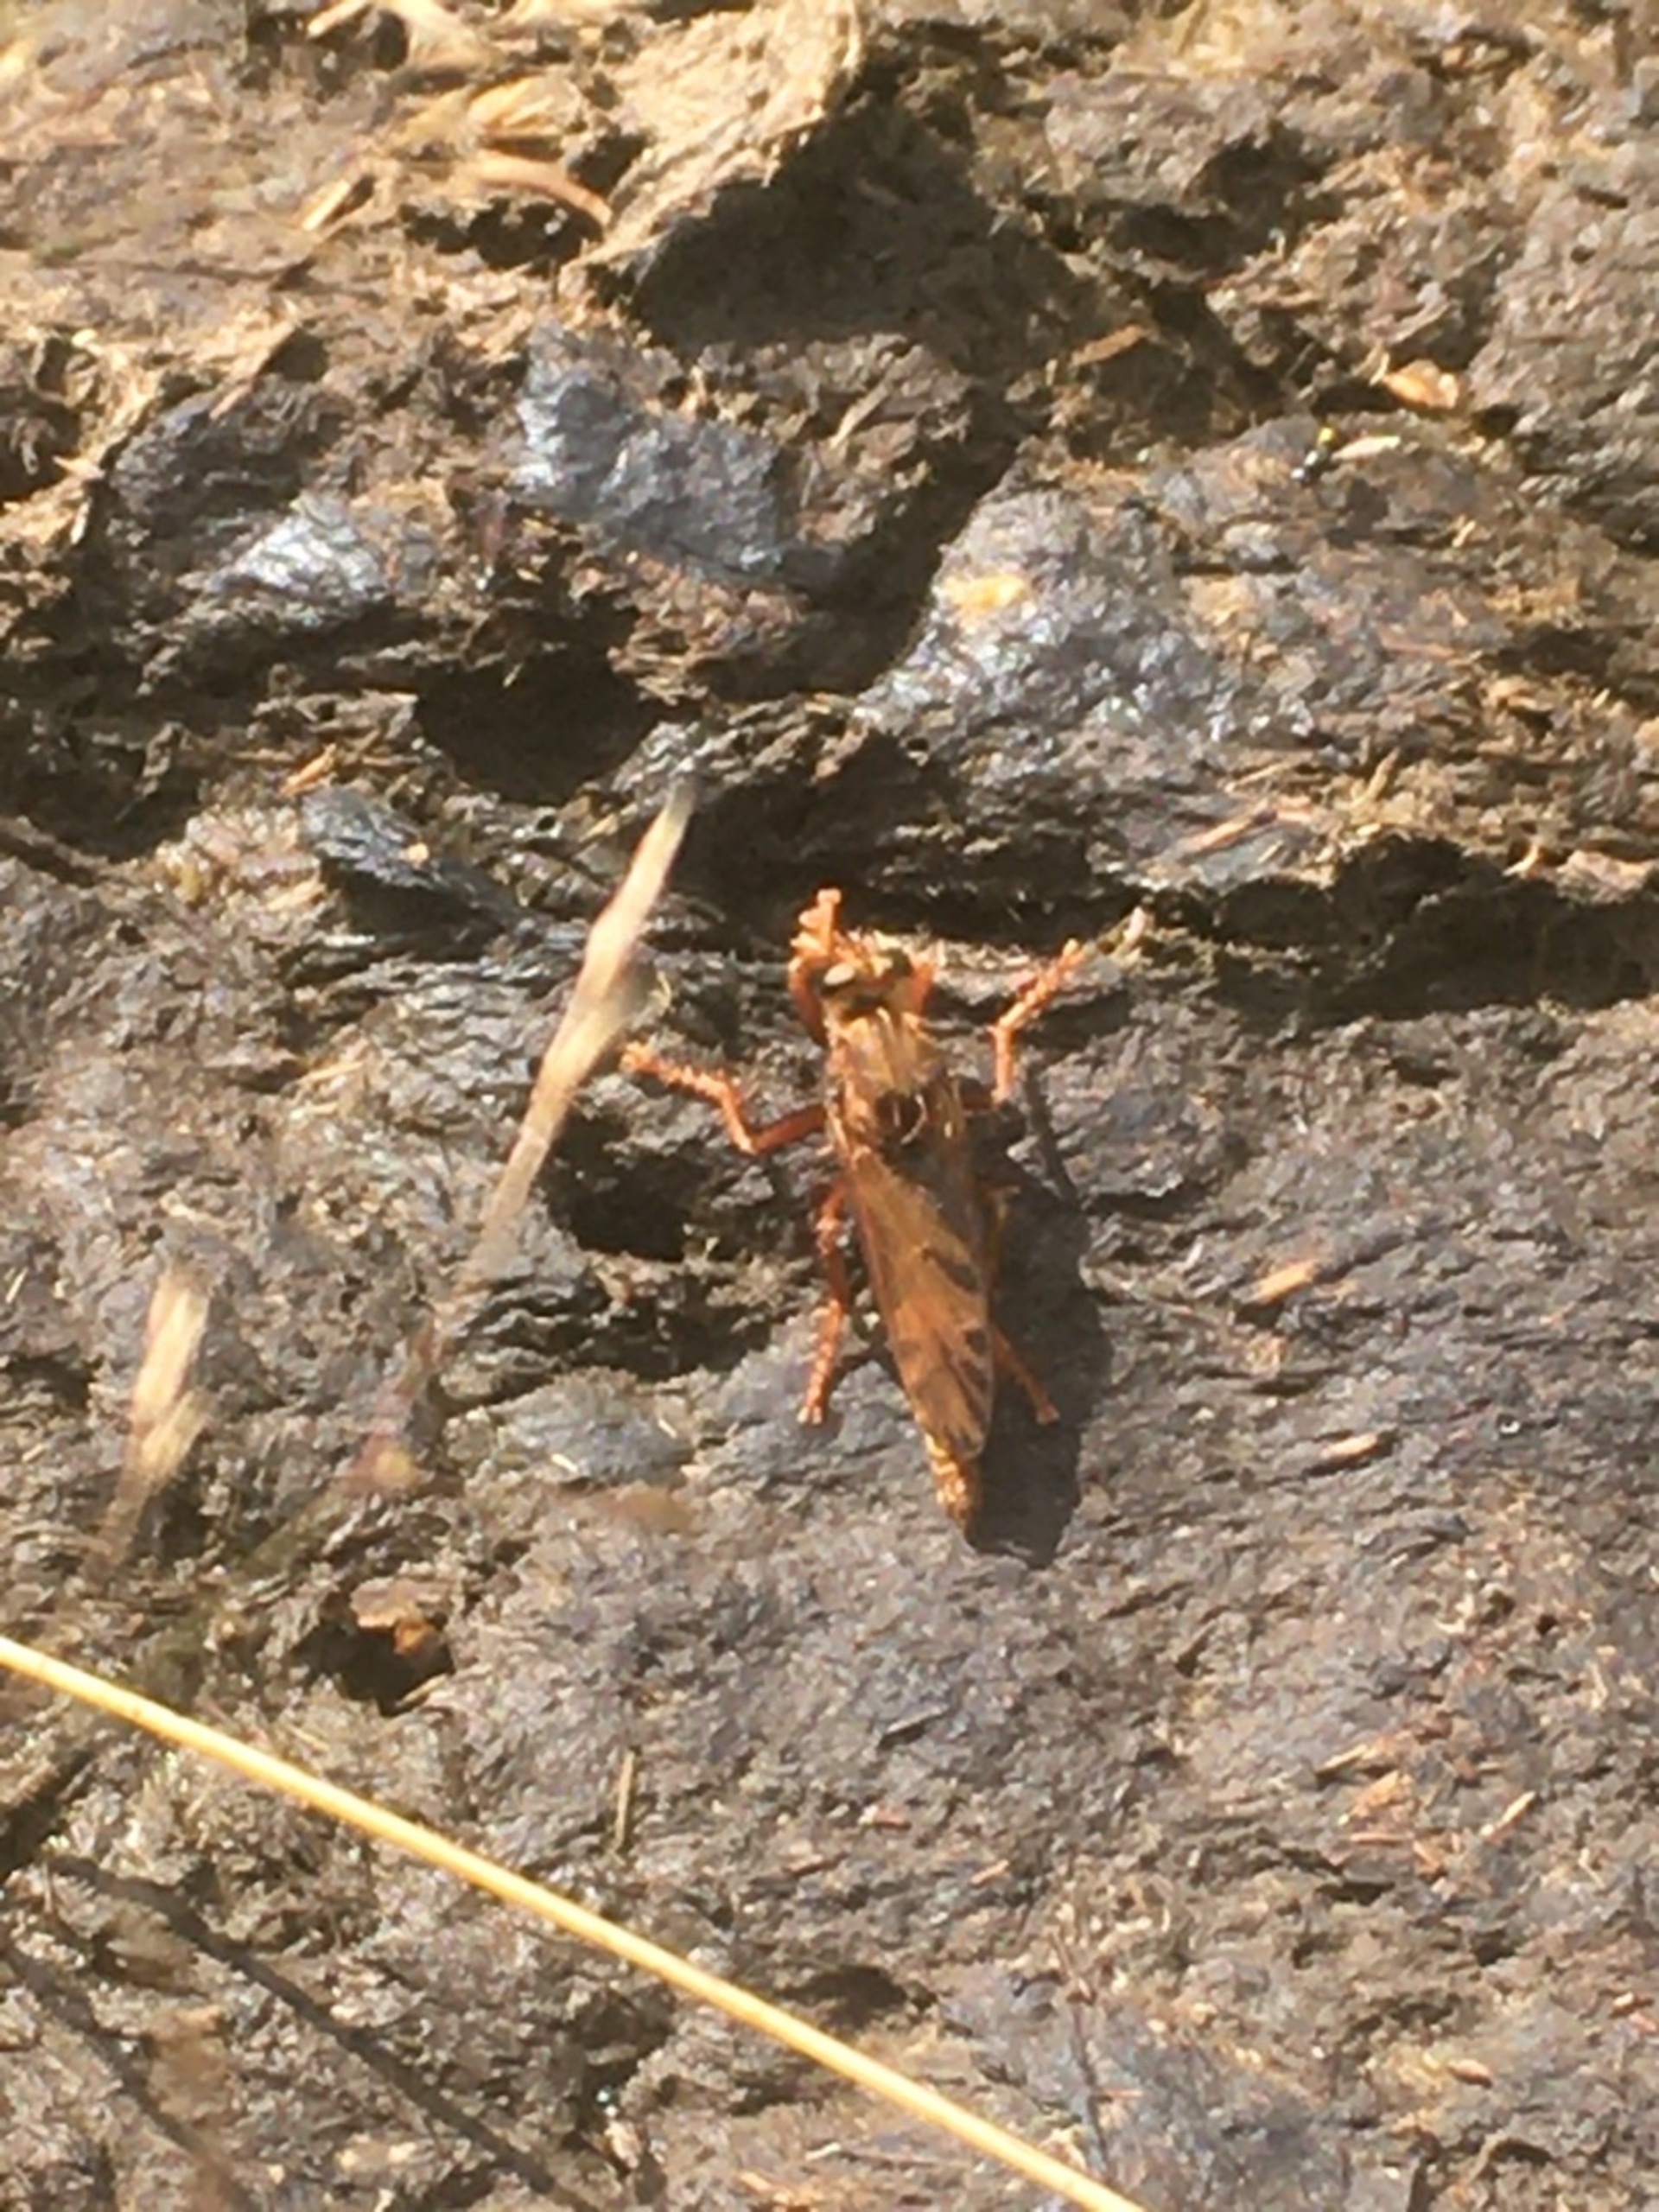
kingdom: Animalia
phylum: Arthropoda
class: Insecta
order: Diptera
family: Asilidae
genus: Asilus
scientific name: Asilus crabroniformis
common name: Stor gødningsrovflue
